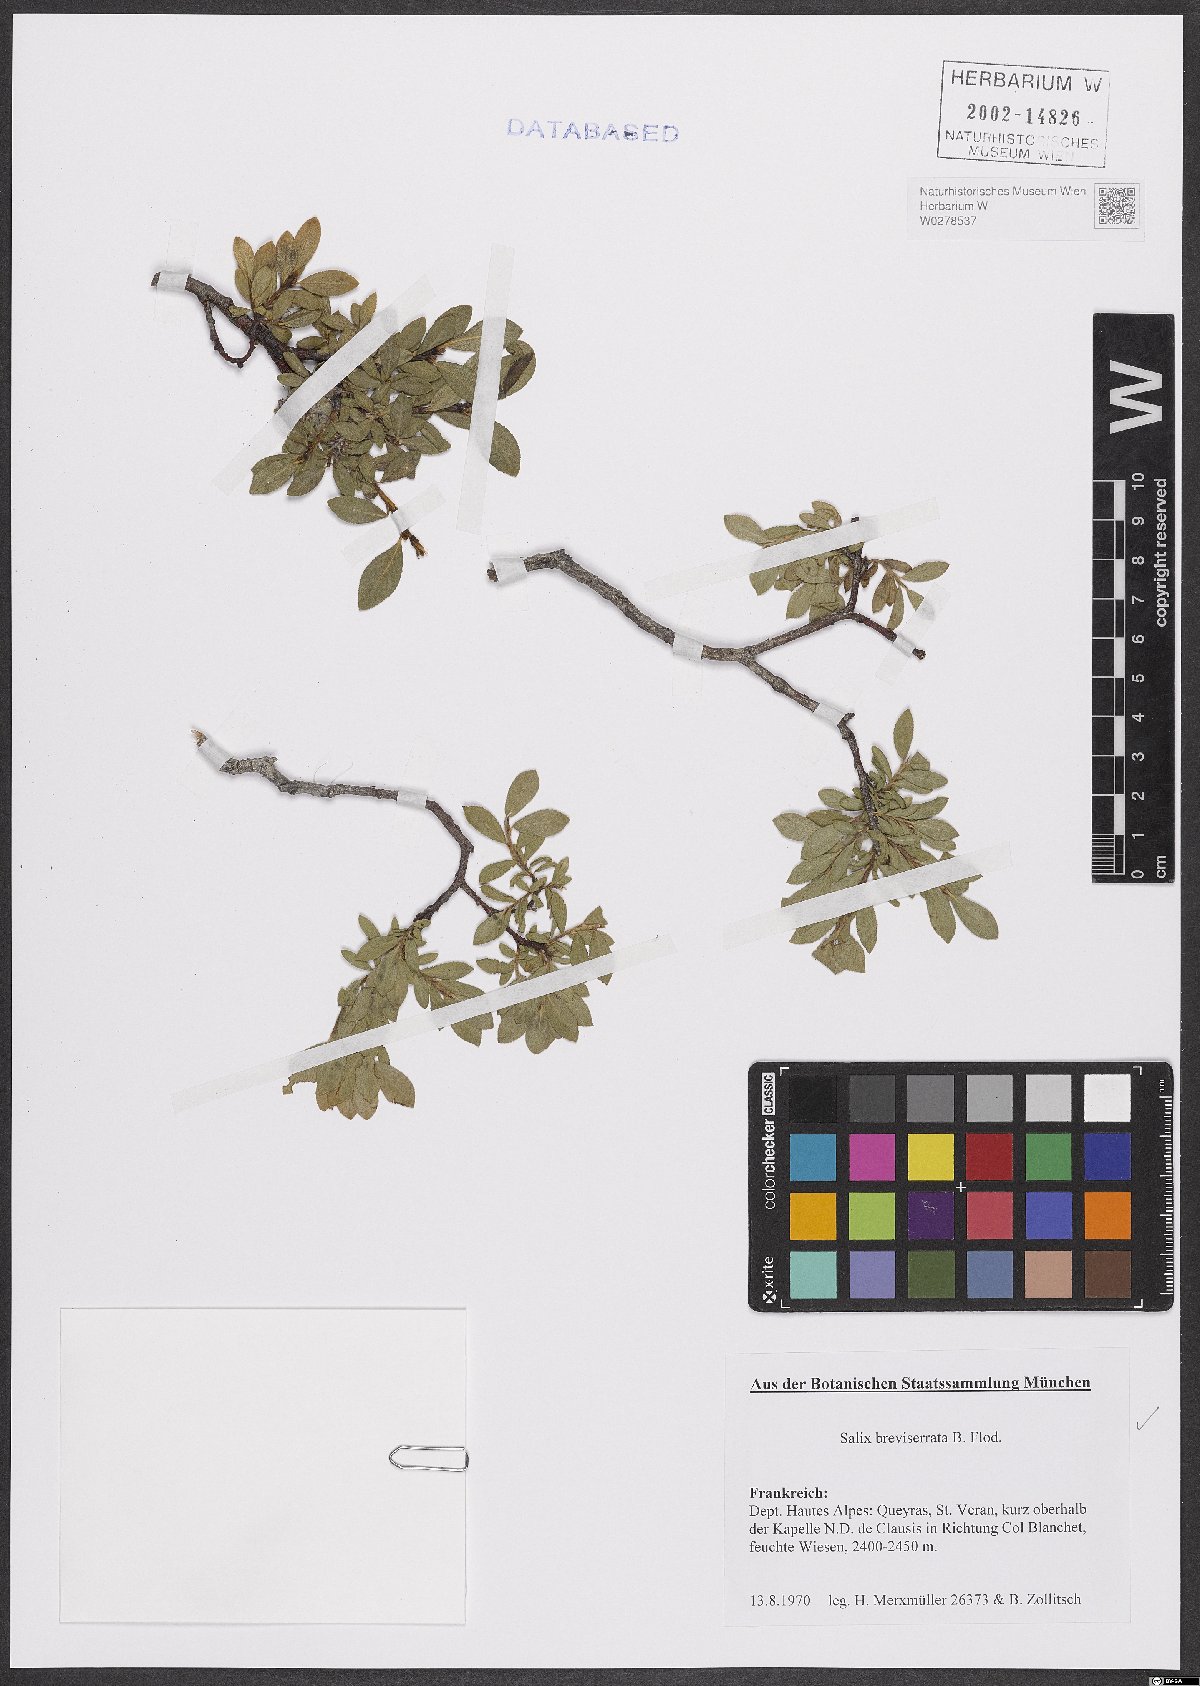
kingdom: Plantae
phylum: Tracheophyta
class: Magnoliopsida
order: Malpighiales
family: Salicaceae
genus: Salix
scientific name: Salix breviserrata
